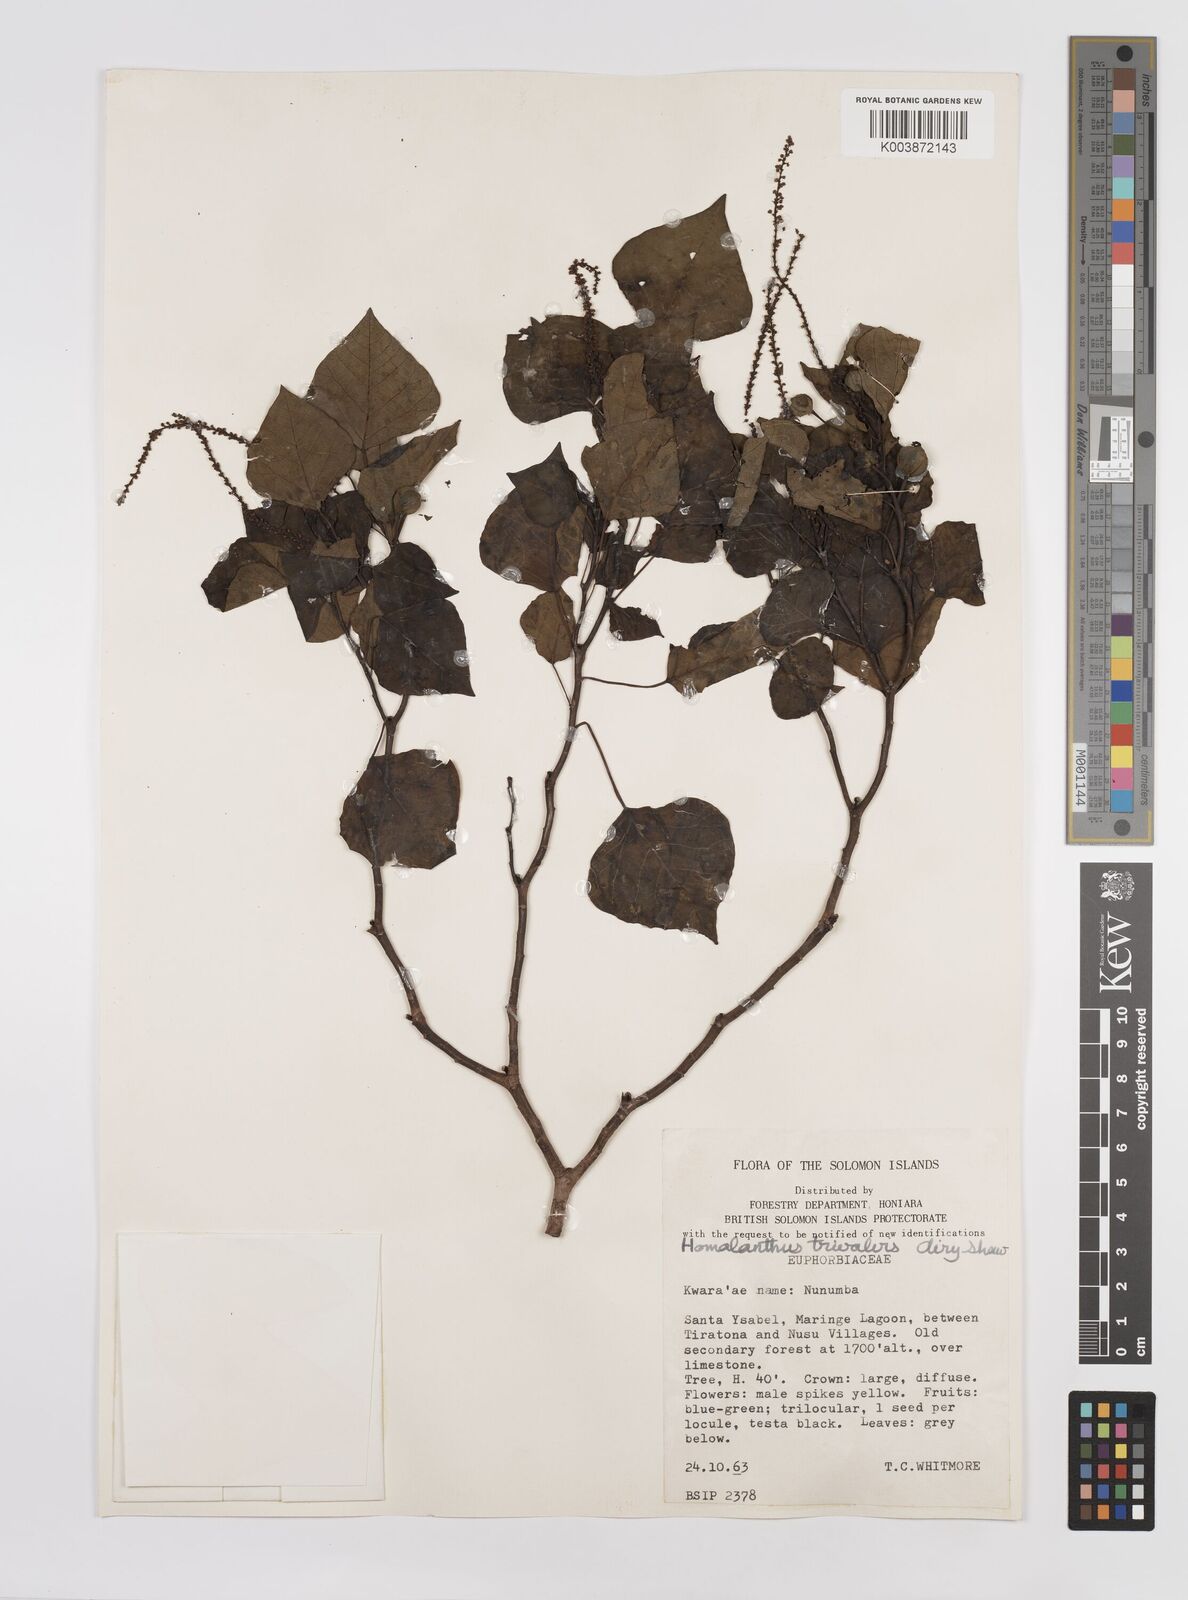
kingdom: Plantae
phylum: Tracheophyta
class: Magnoliopsida
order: Malpighiales
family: Euphorbiaceae
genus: Homalanthus
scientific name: Homalanthus trivalvis
